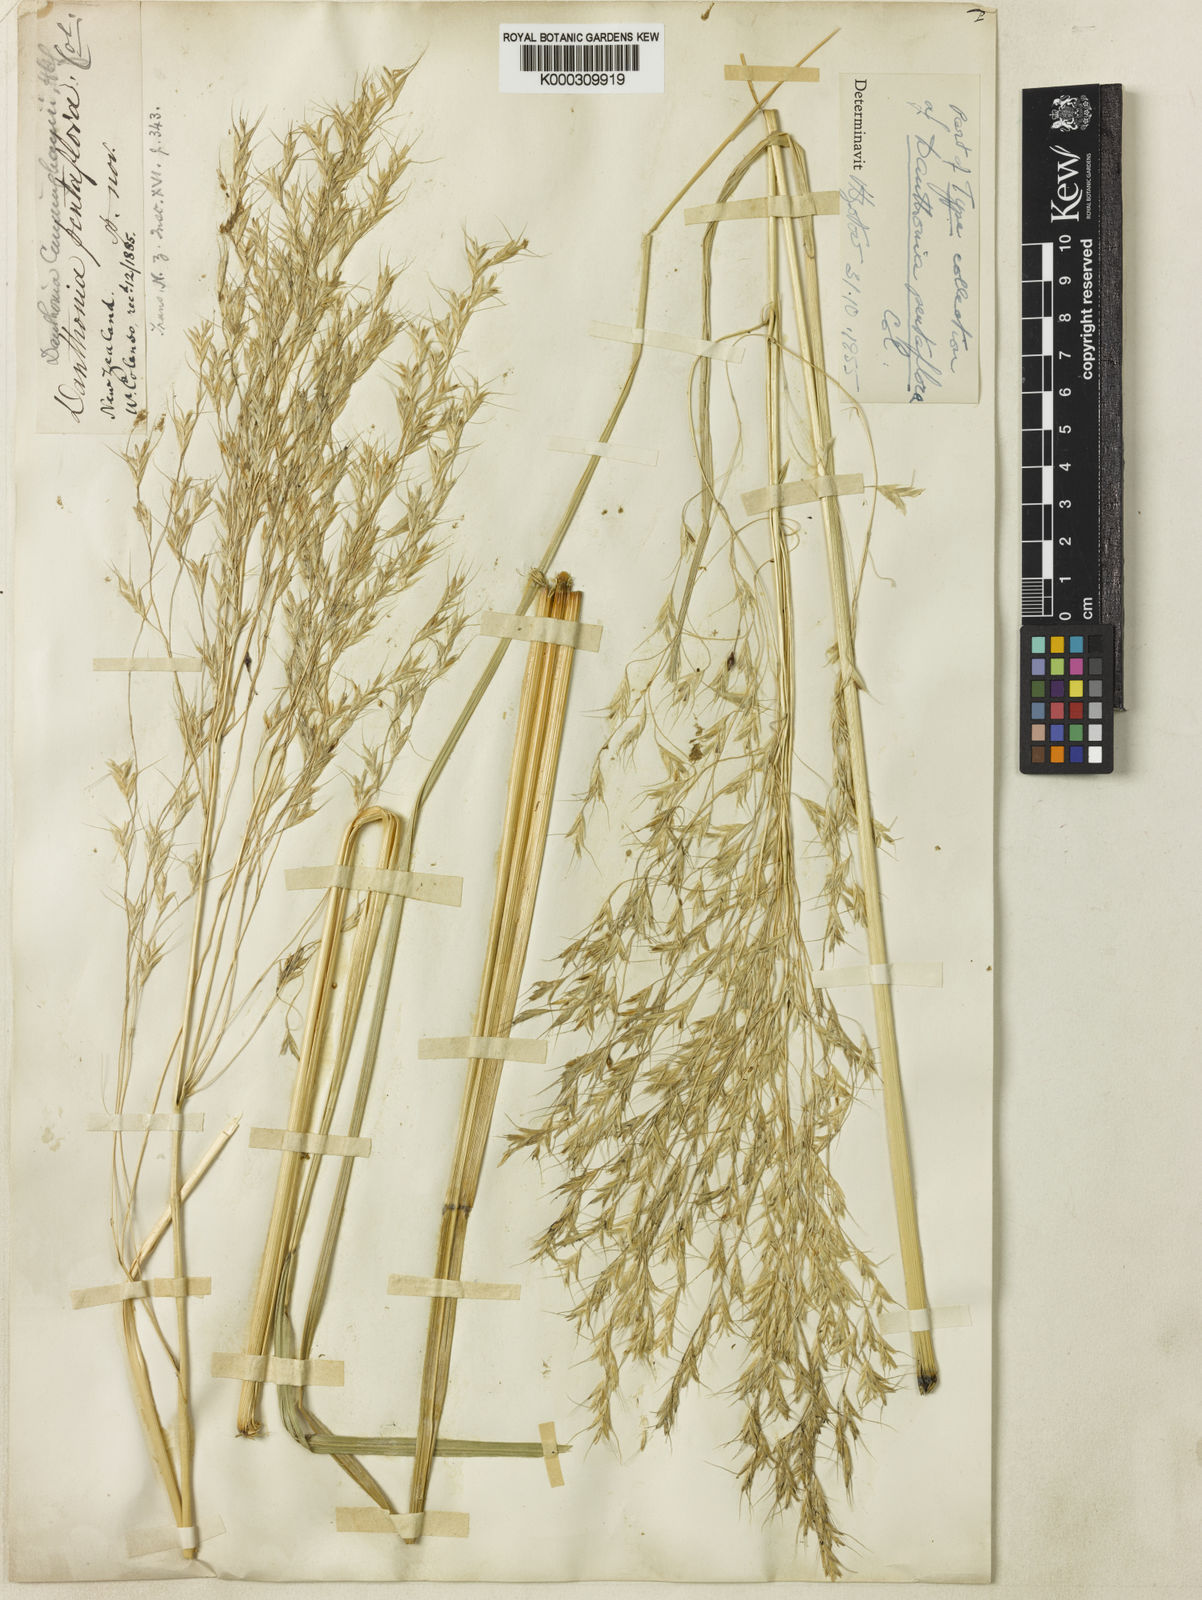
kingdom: Plantae
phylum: Tracheophyta
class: Liliopsida
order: Poales
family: Poaceae
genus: Chionochloa
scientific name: Chionochloa conspicua
